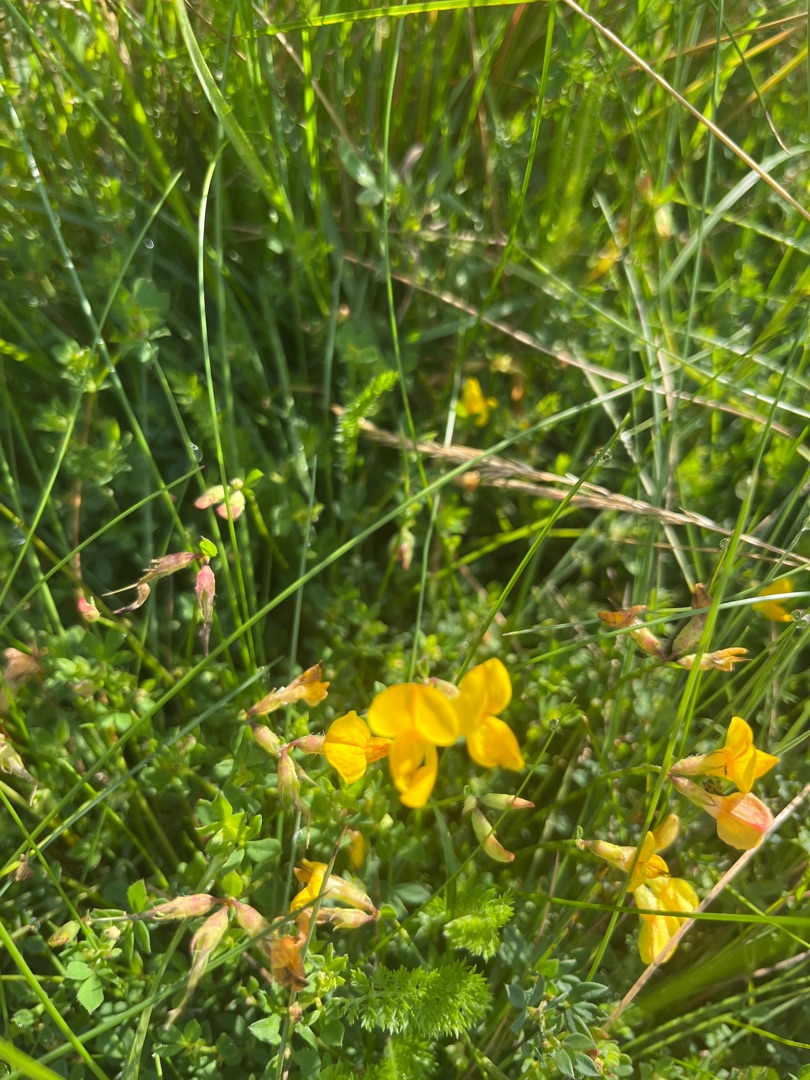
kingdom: Plantae
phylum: Tracheophyta
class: Magnoliopsida
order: Fabales
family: Fabaceae
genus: Lotus
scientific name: Lotus corniculatus
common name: Almindelig kællingetand
